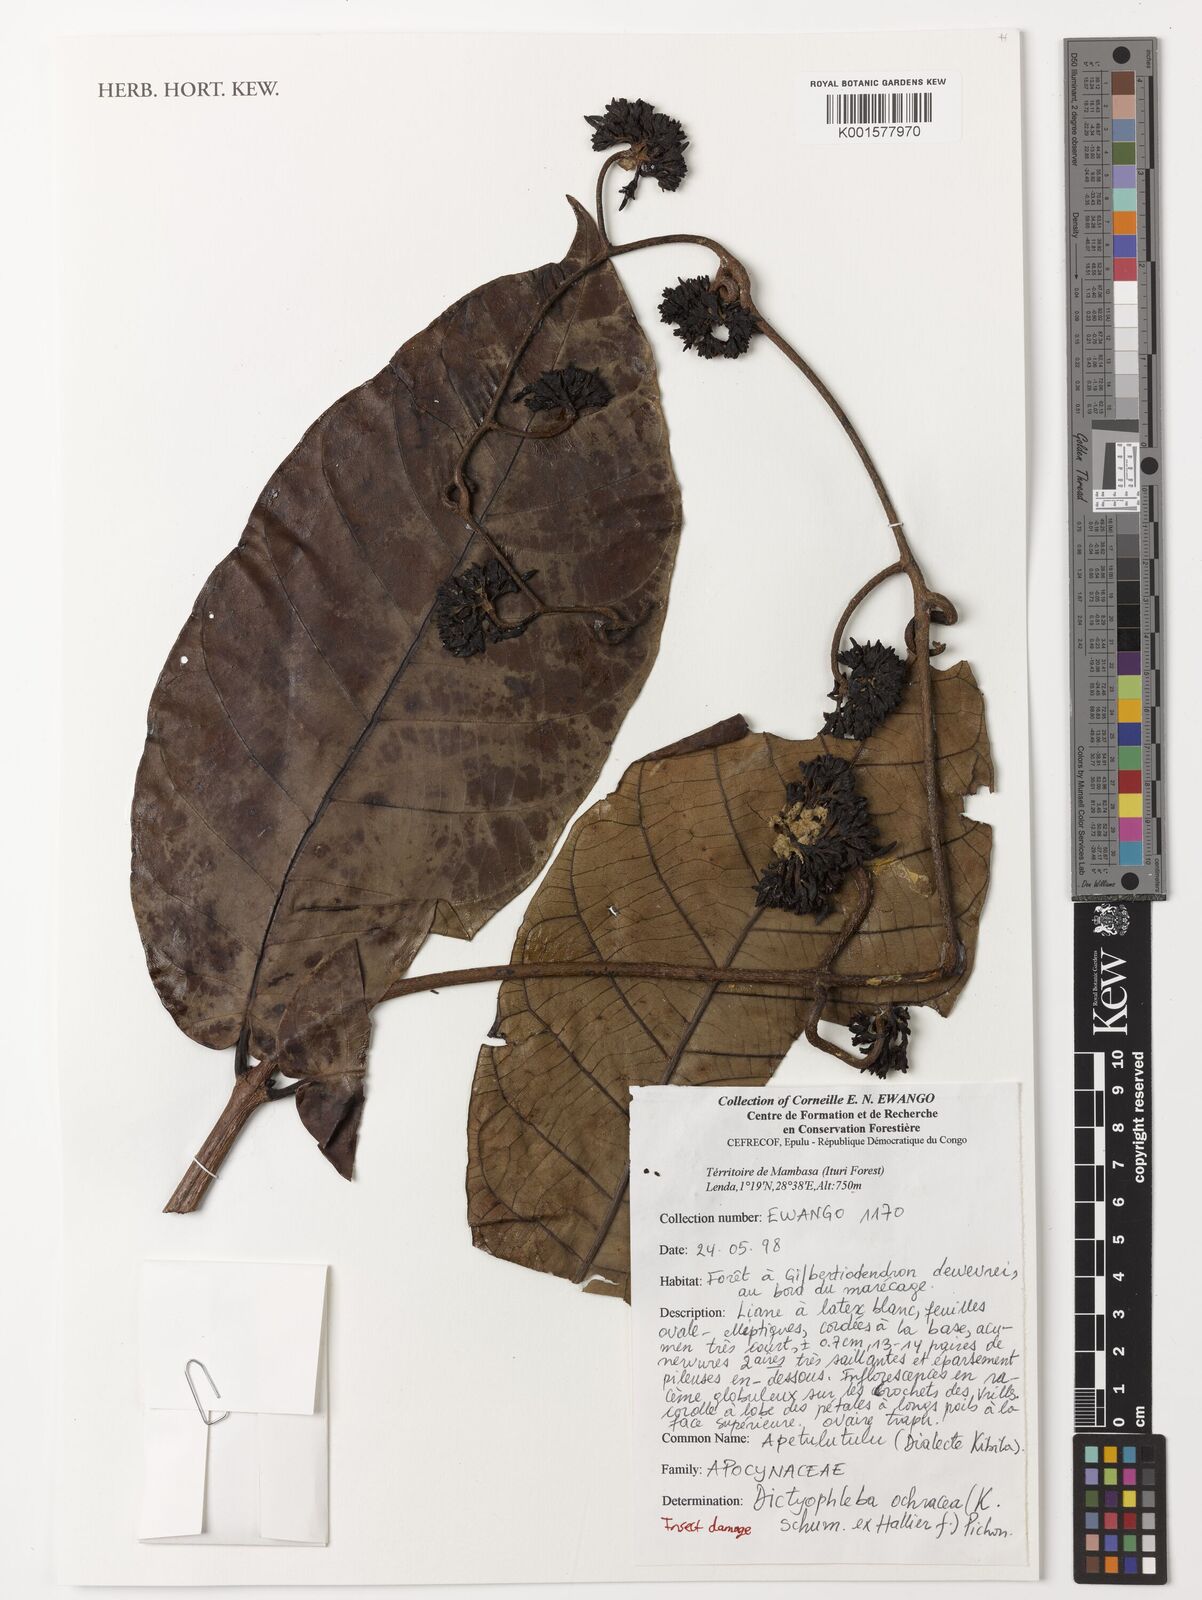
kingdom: Plantae
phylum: Tracheophyta
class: Magnoliopsida
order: Gentianales
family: Apocynaceae
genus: Dictyophleba
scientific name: Dictyophleba ochracea
